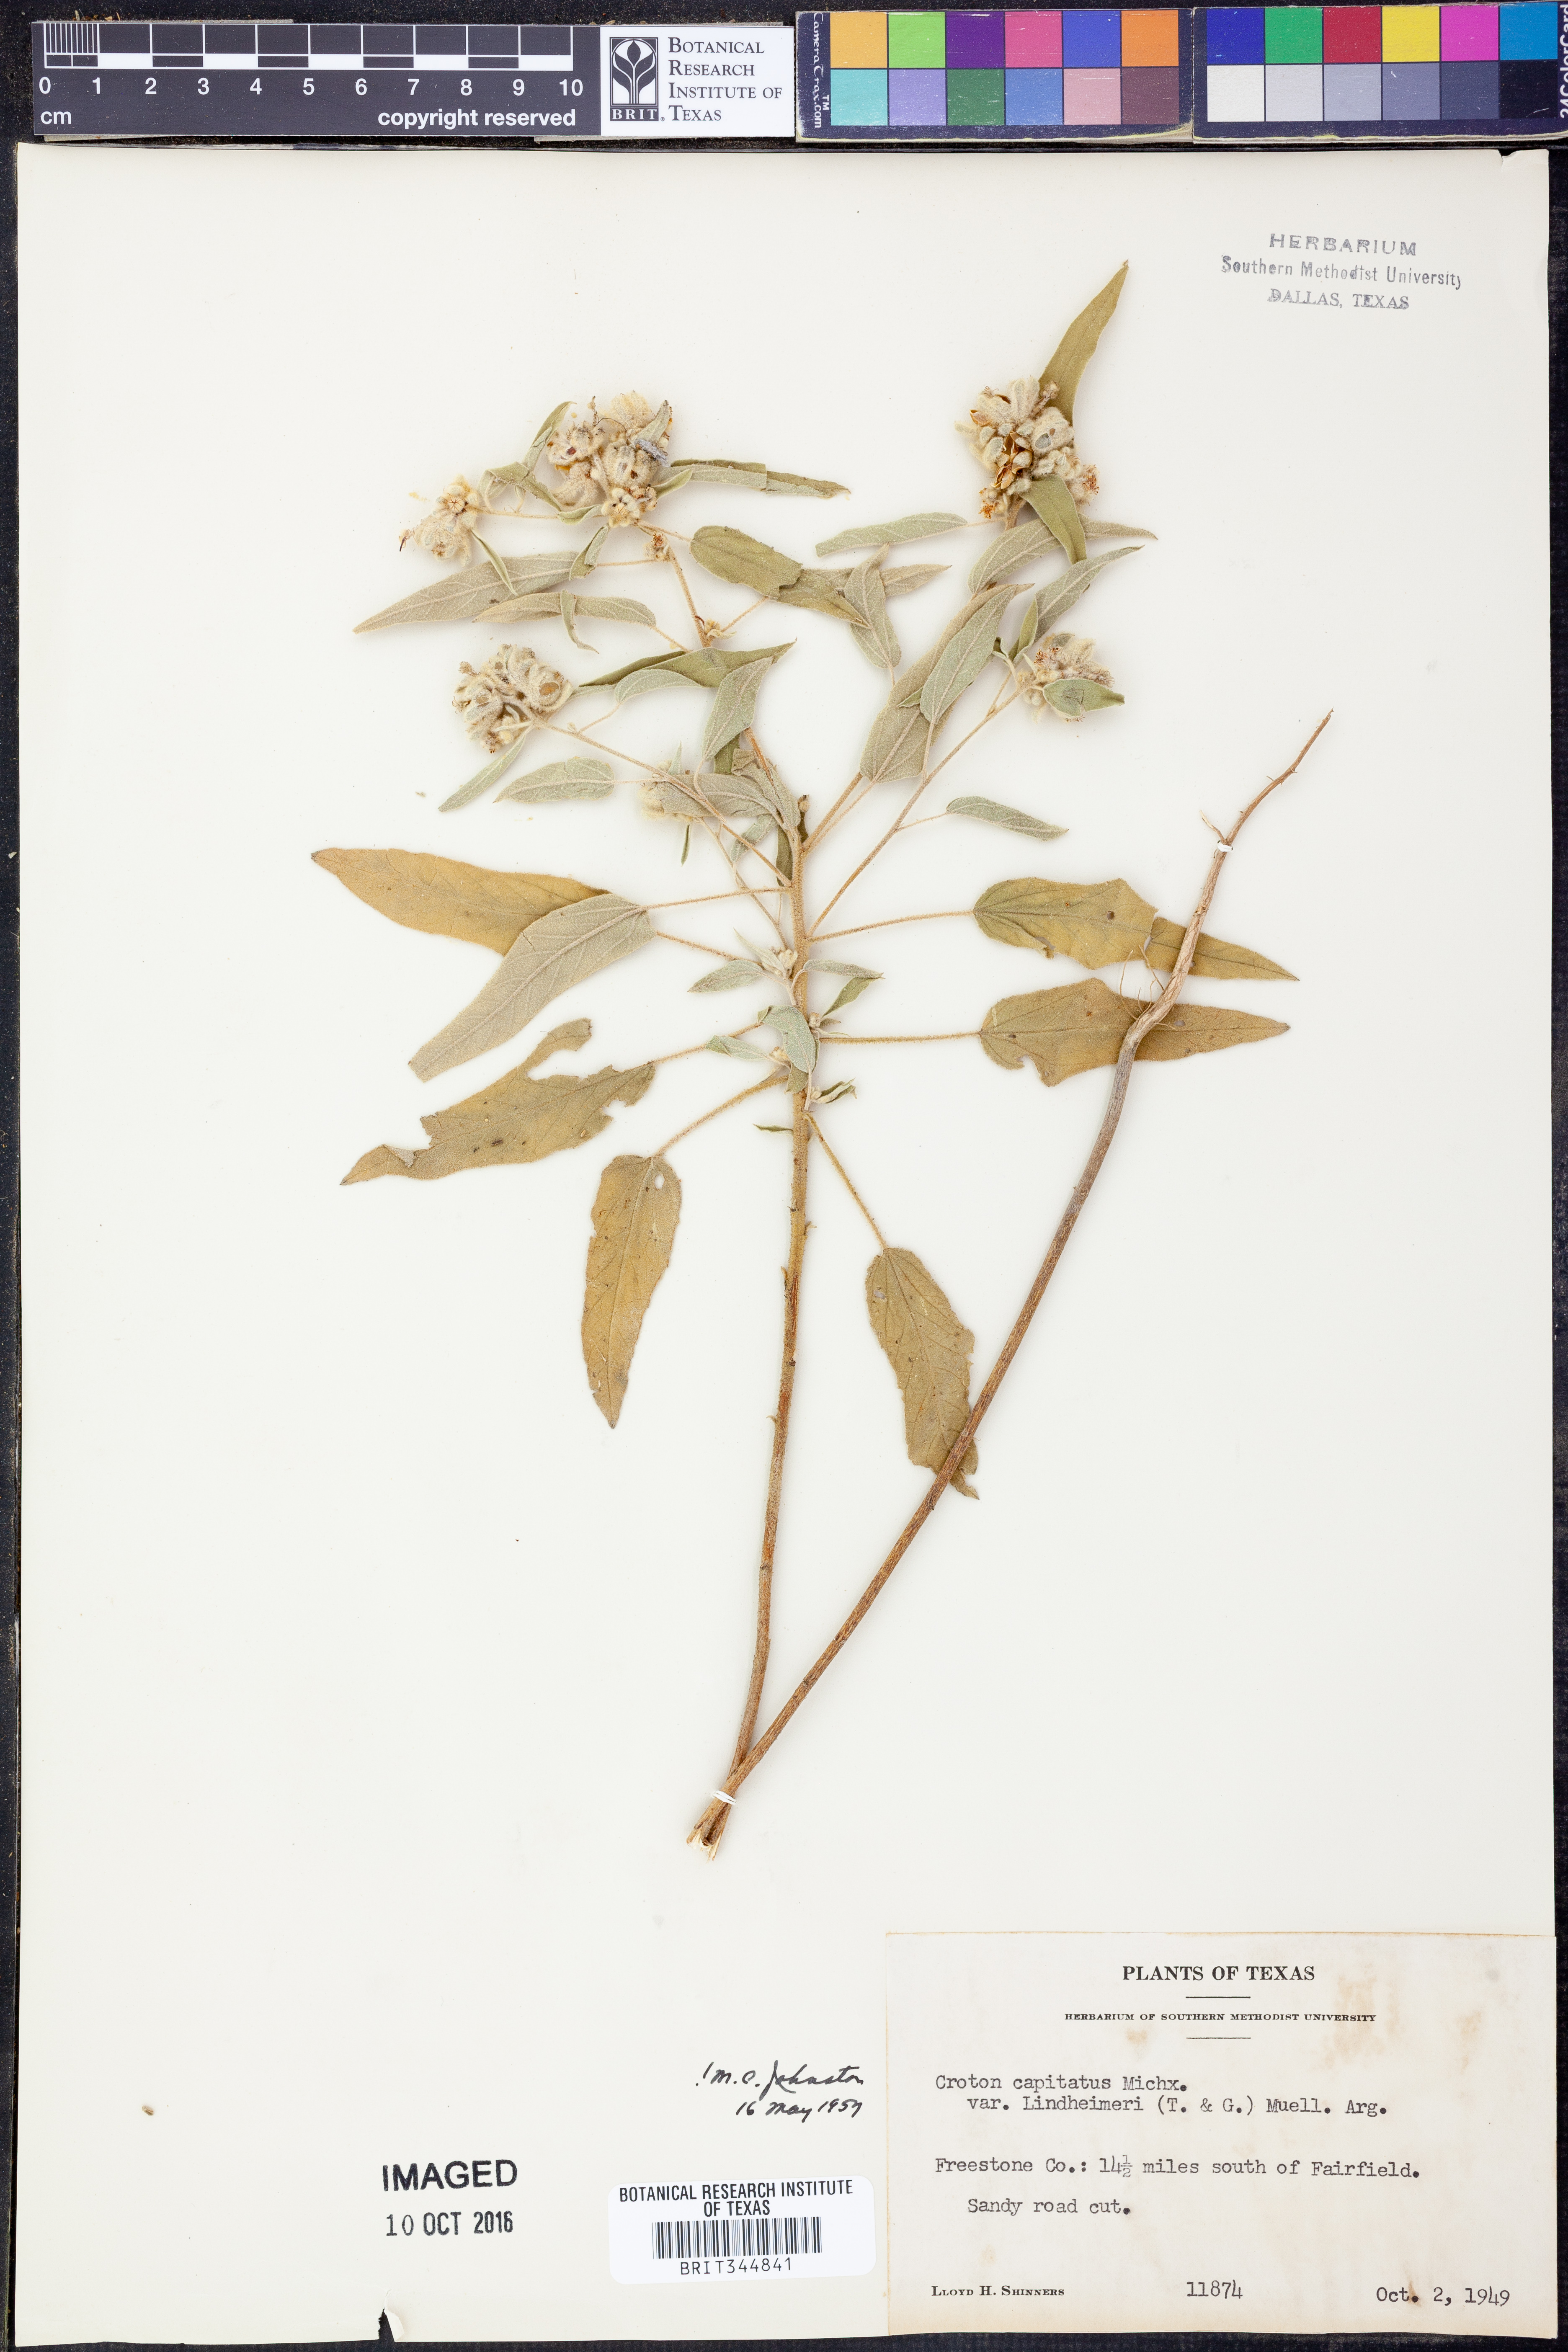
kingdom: Plantae
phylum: Tracheophyta
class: Magnoliopsida
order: Malpighiales
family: Euphorbiaceae
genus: Croton
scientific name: Croton lindheimeri
